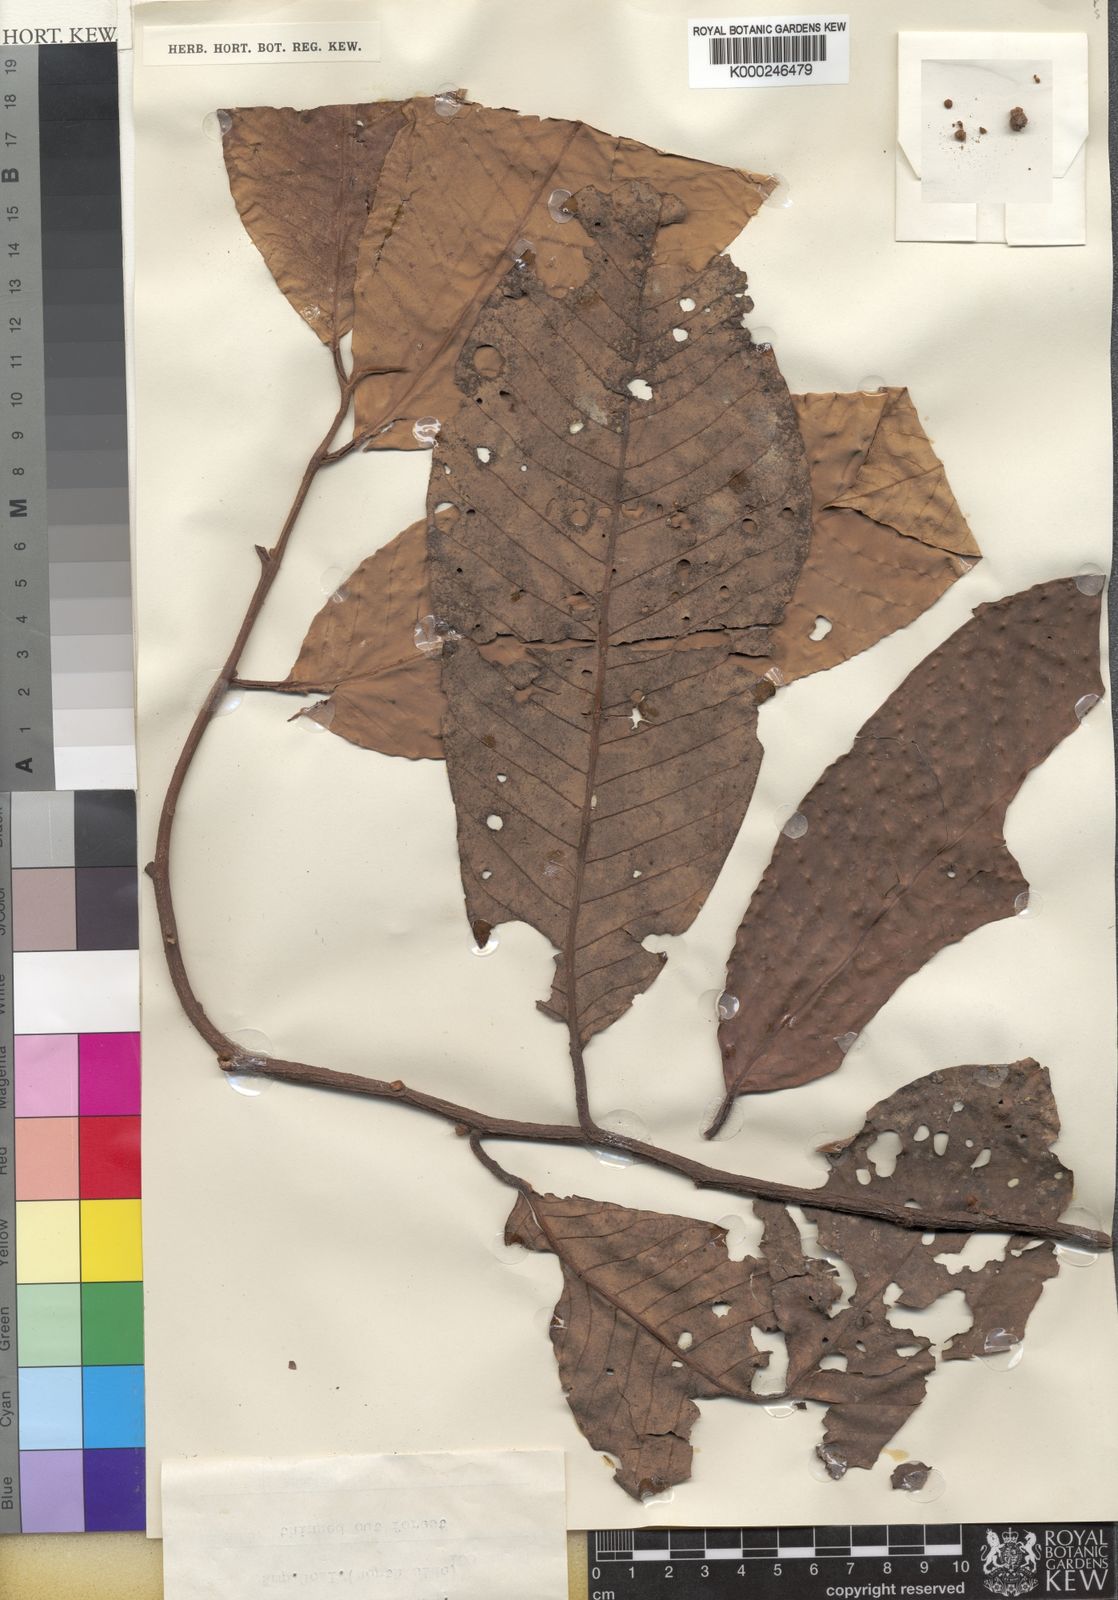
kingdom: Plantae
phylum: Tracheophyta
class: Magnoliopsida
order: Magnoliales
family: Myristicaceae
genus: Myristica
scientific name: Myristica fatua
